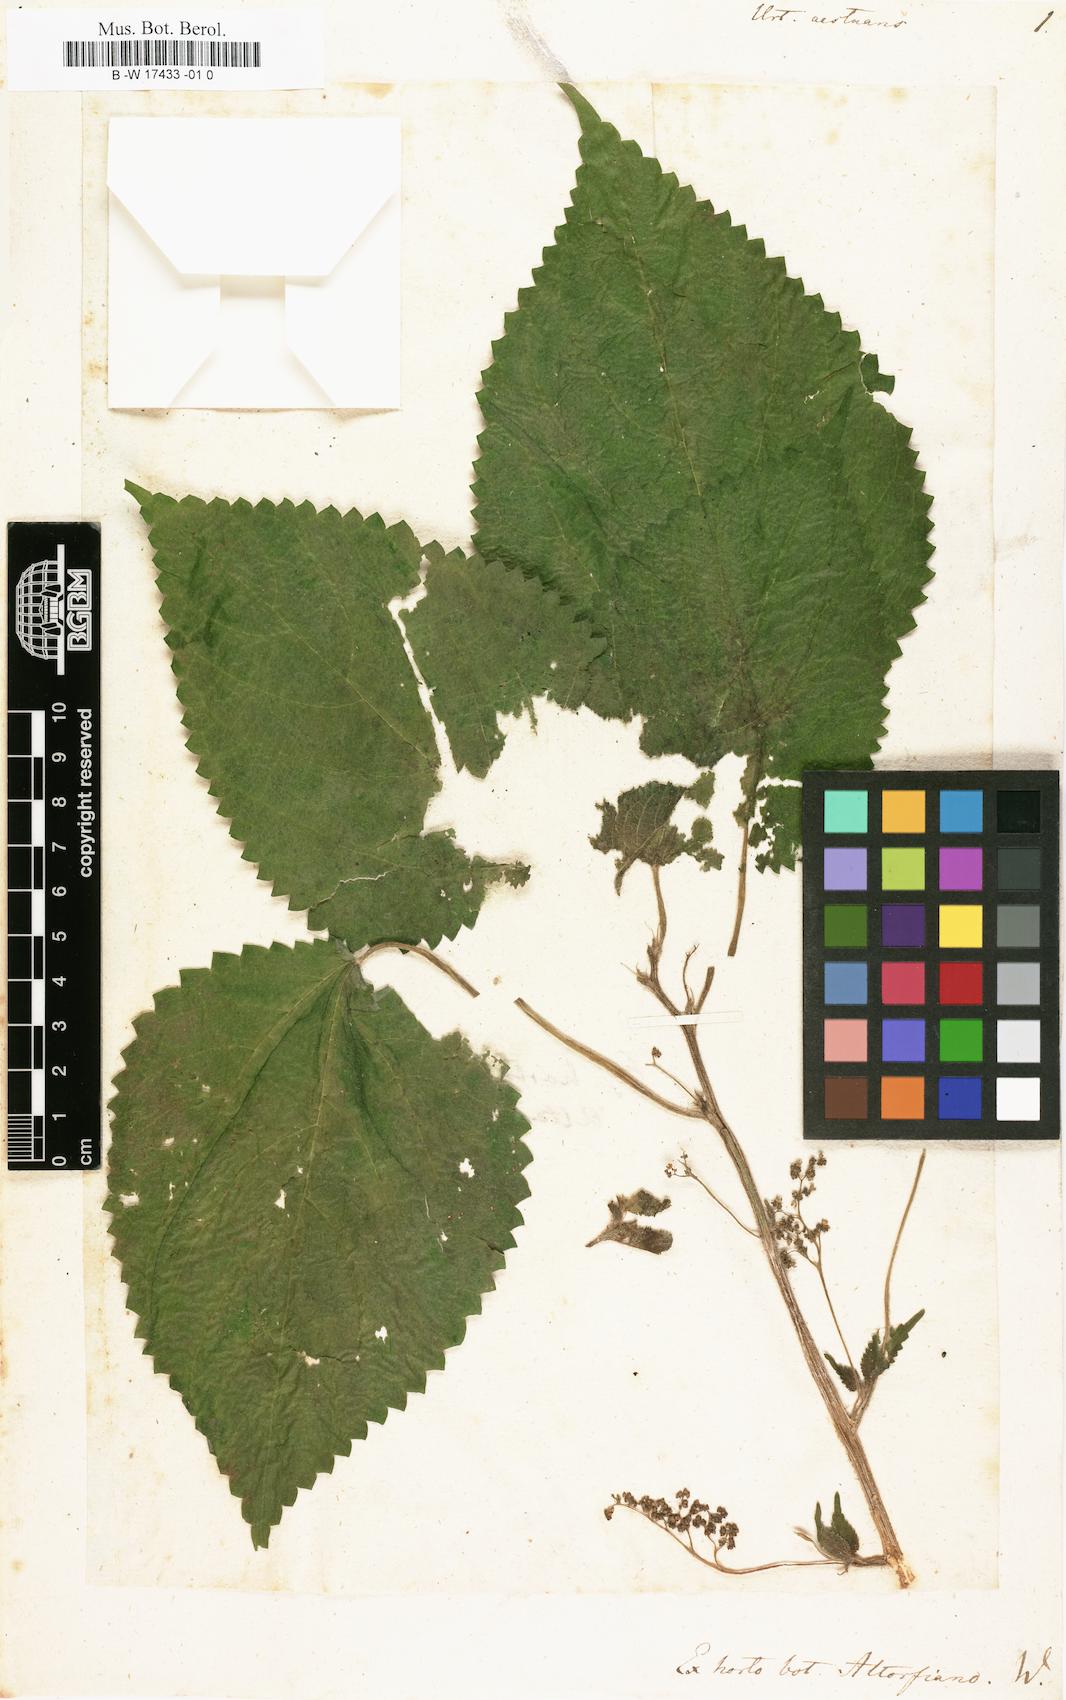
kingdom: Plantae
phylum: Tracheophyta
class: Magnoliopsida
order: Rosales
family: Urticaceae
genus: Laportea
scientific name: Laportea aestuans
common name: West indian woodnettle
